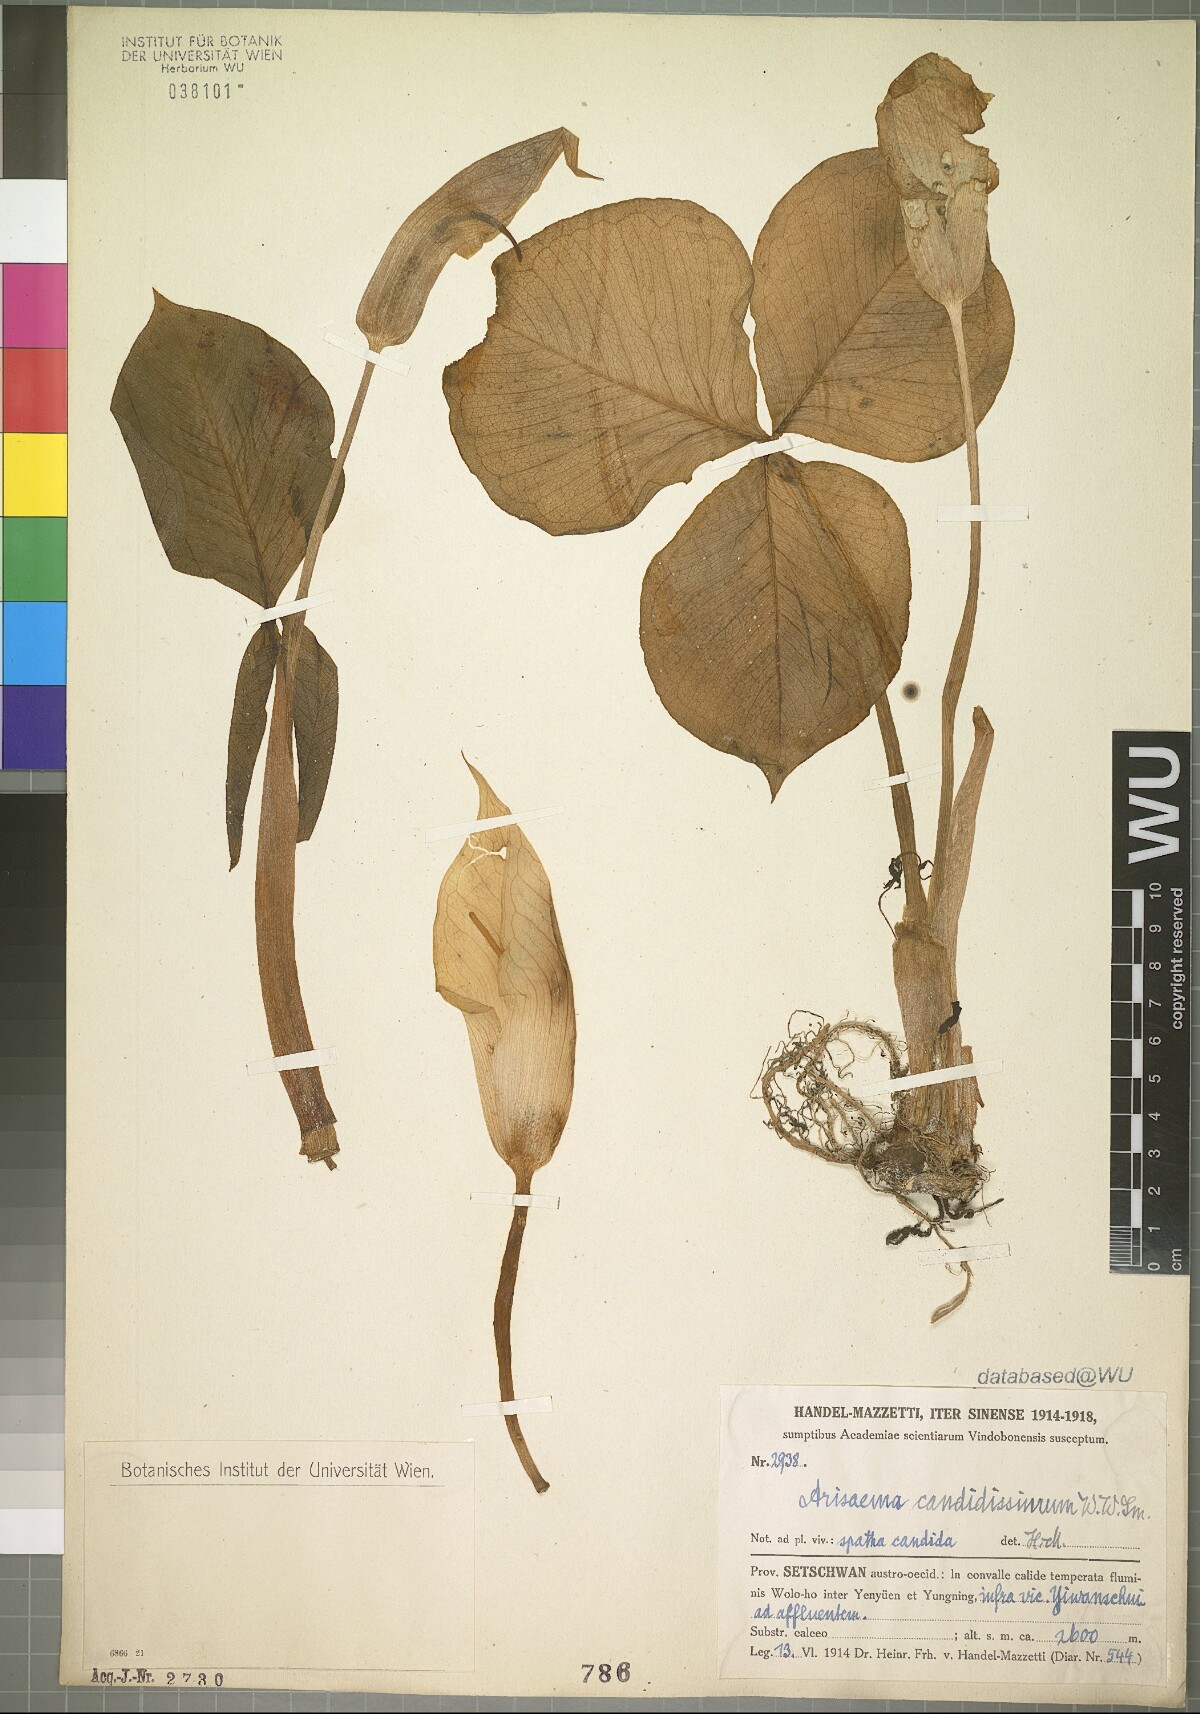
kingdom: Plantae
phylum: Tracheophyta
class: Liliopsida
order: Alismatales
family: Araceae
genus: Arisaema
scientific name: Arisaema candidissimum
